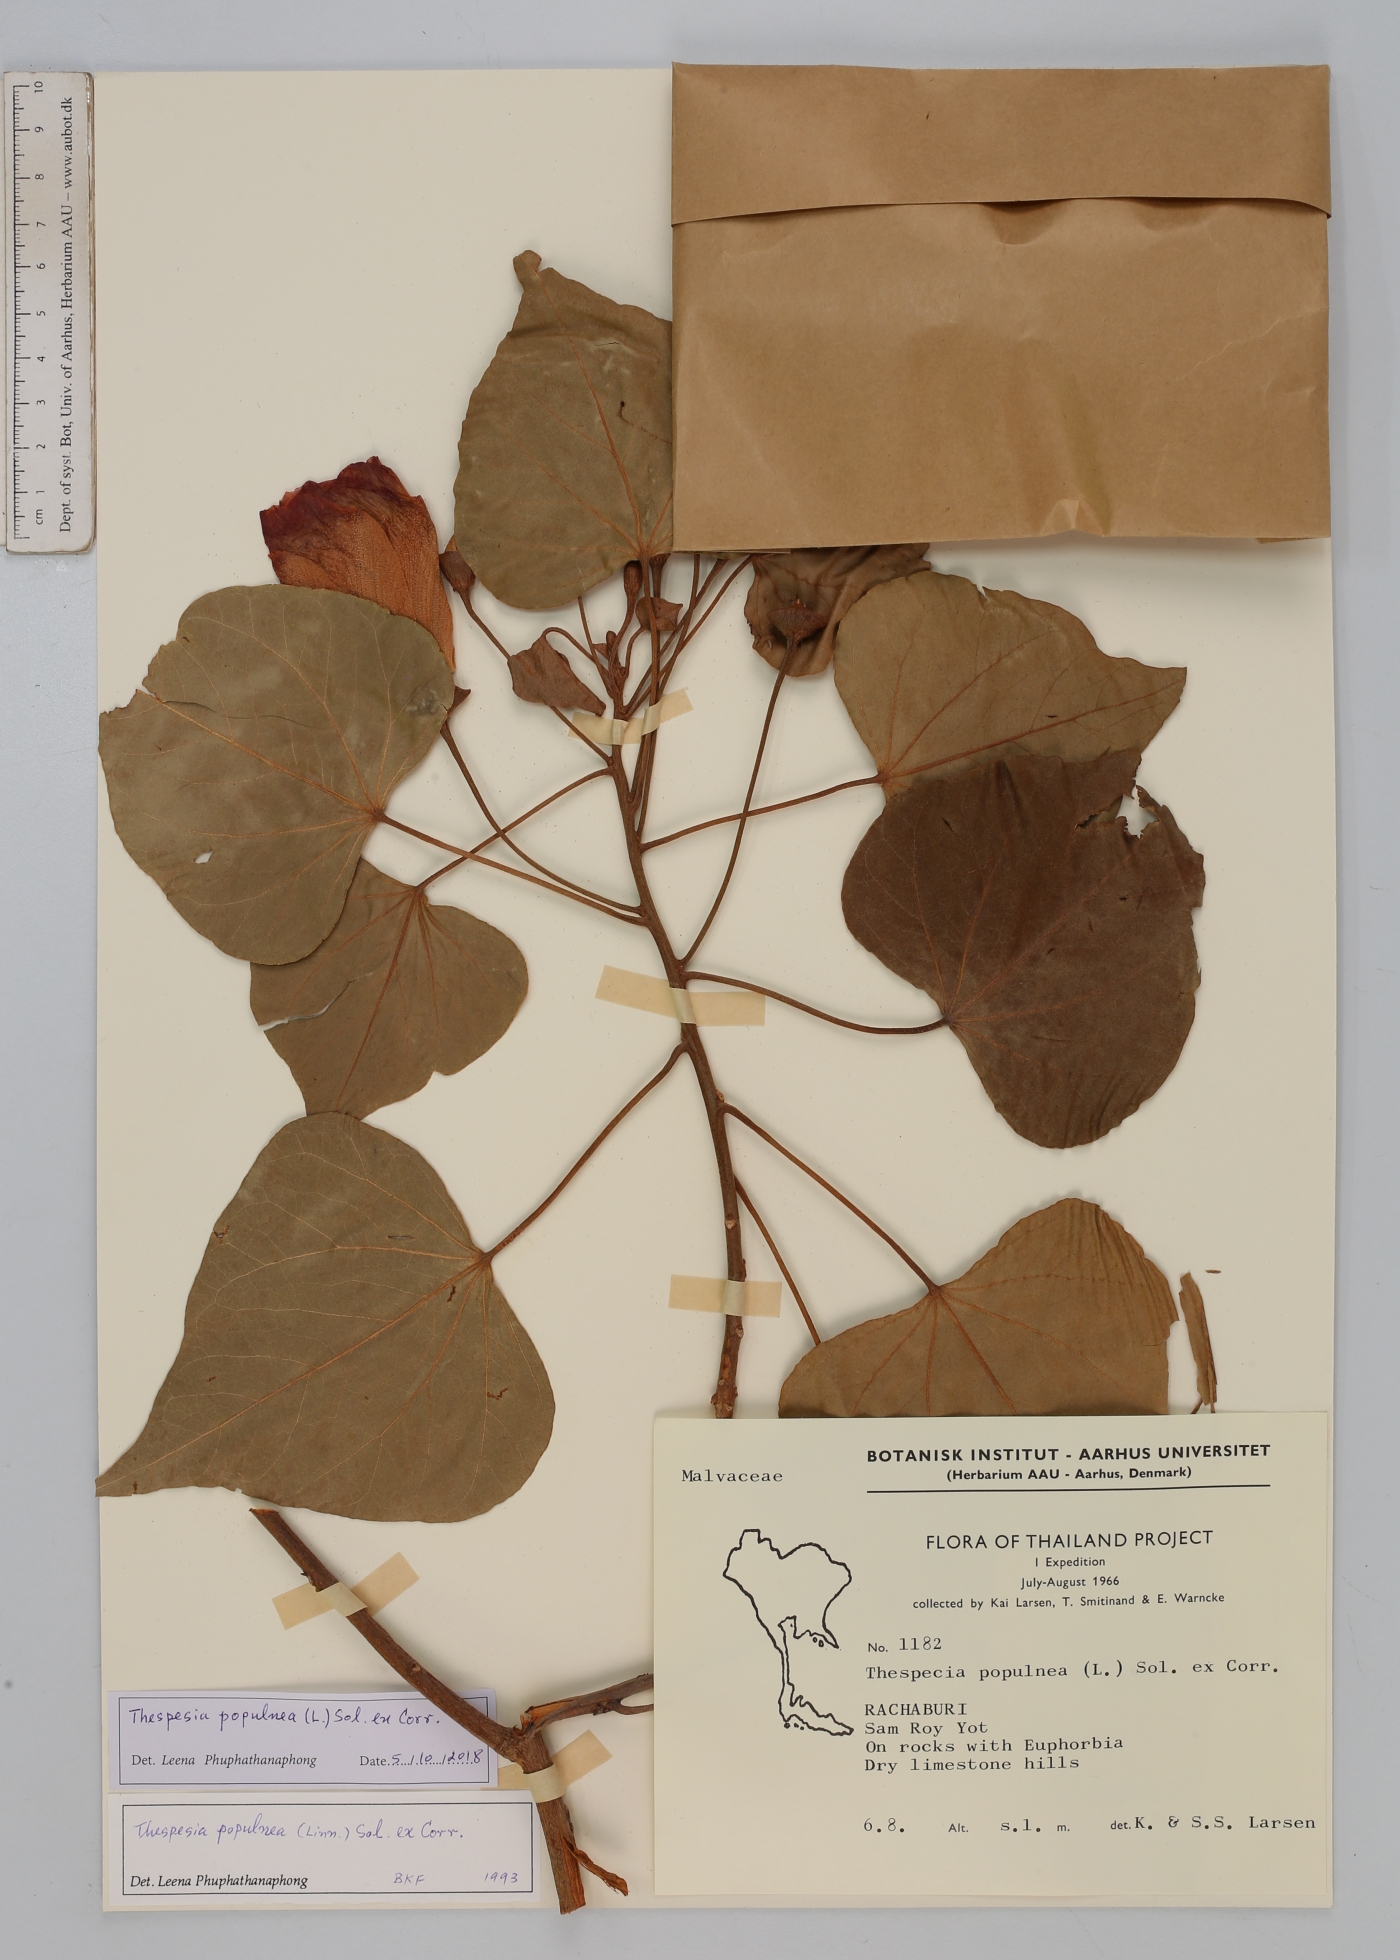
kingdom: Plantae
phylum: Tracheophyta
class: Magnoliopsida
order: Malvales
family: Malvaceae
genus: Thespesia
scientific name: Thespesia populnea
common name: Seaside mahoe
